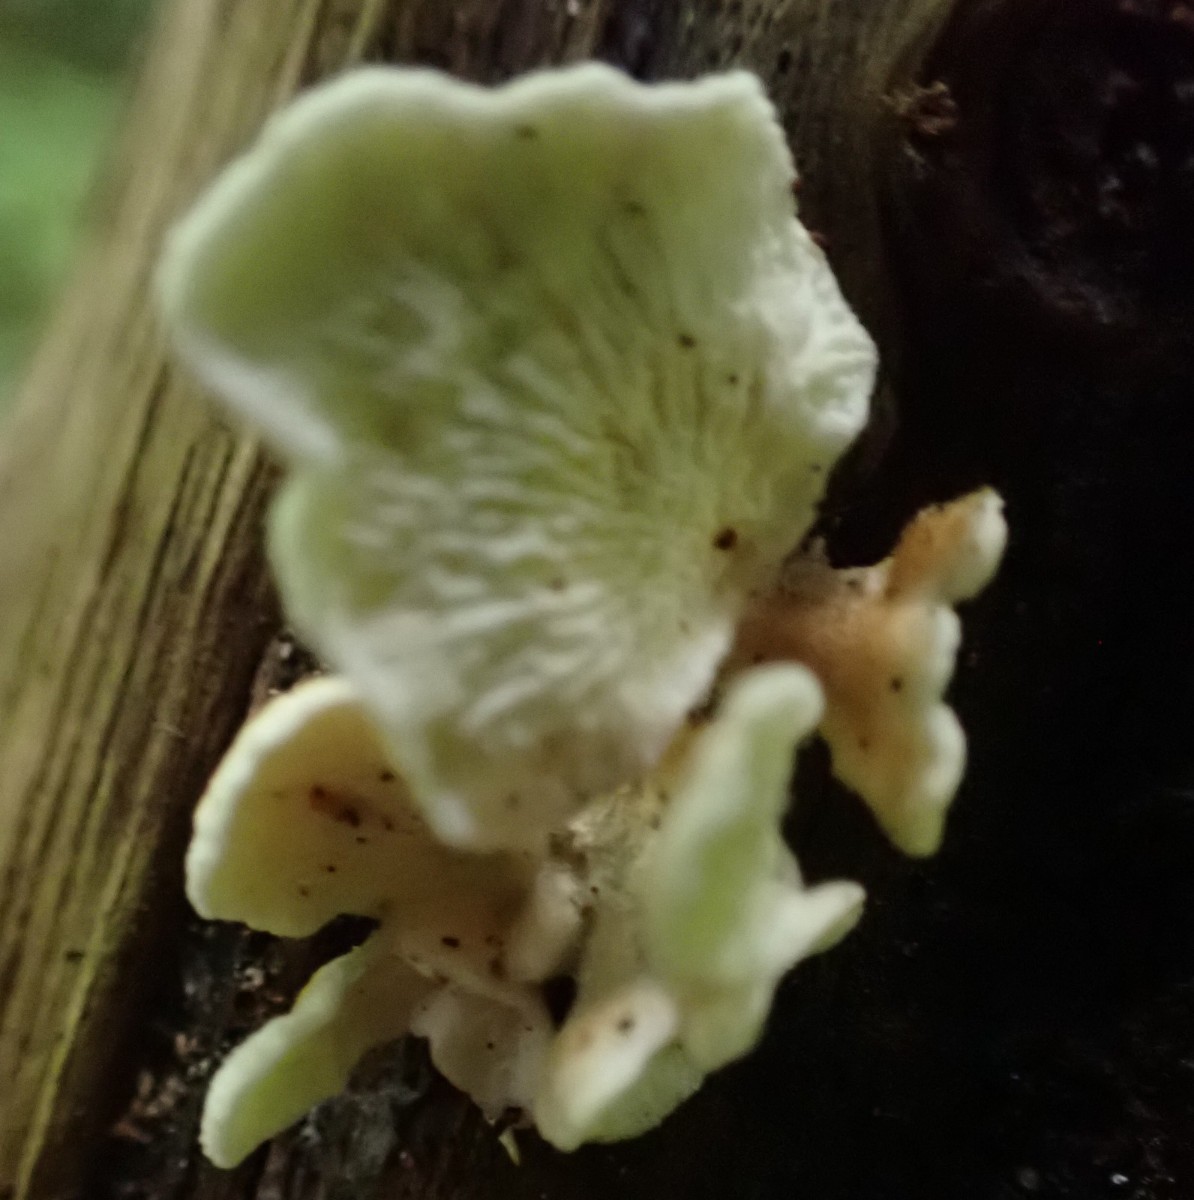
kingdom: Fungi
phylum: Basidiomycota
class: Agaricomycetes
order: Amylocorticiales
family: Amylocorticiaceae
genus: Plicaturopsis
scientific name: Plicaturopsis crispa
